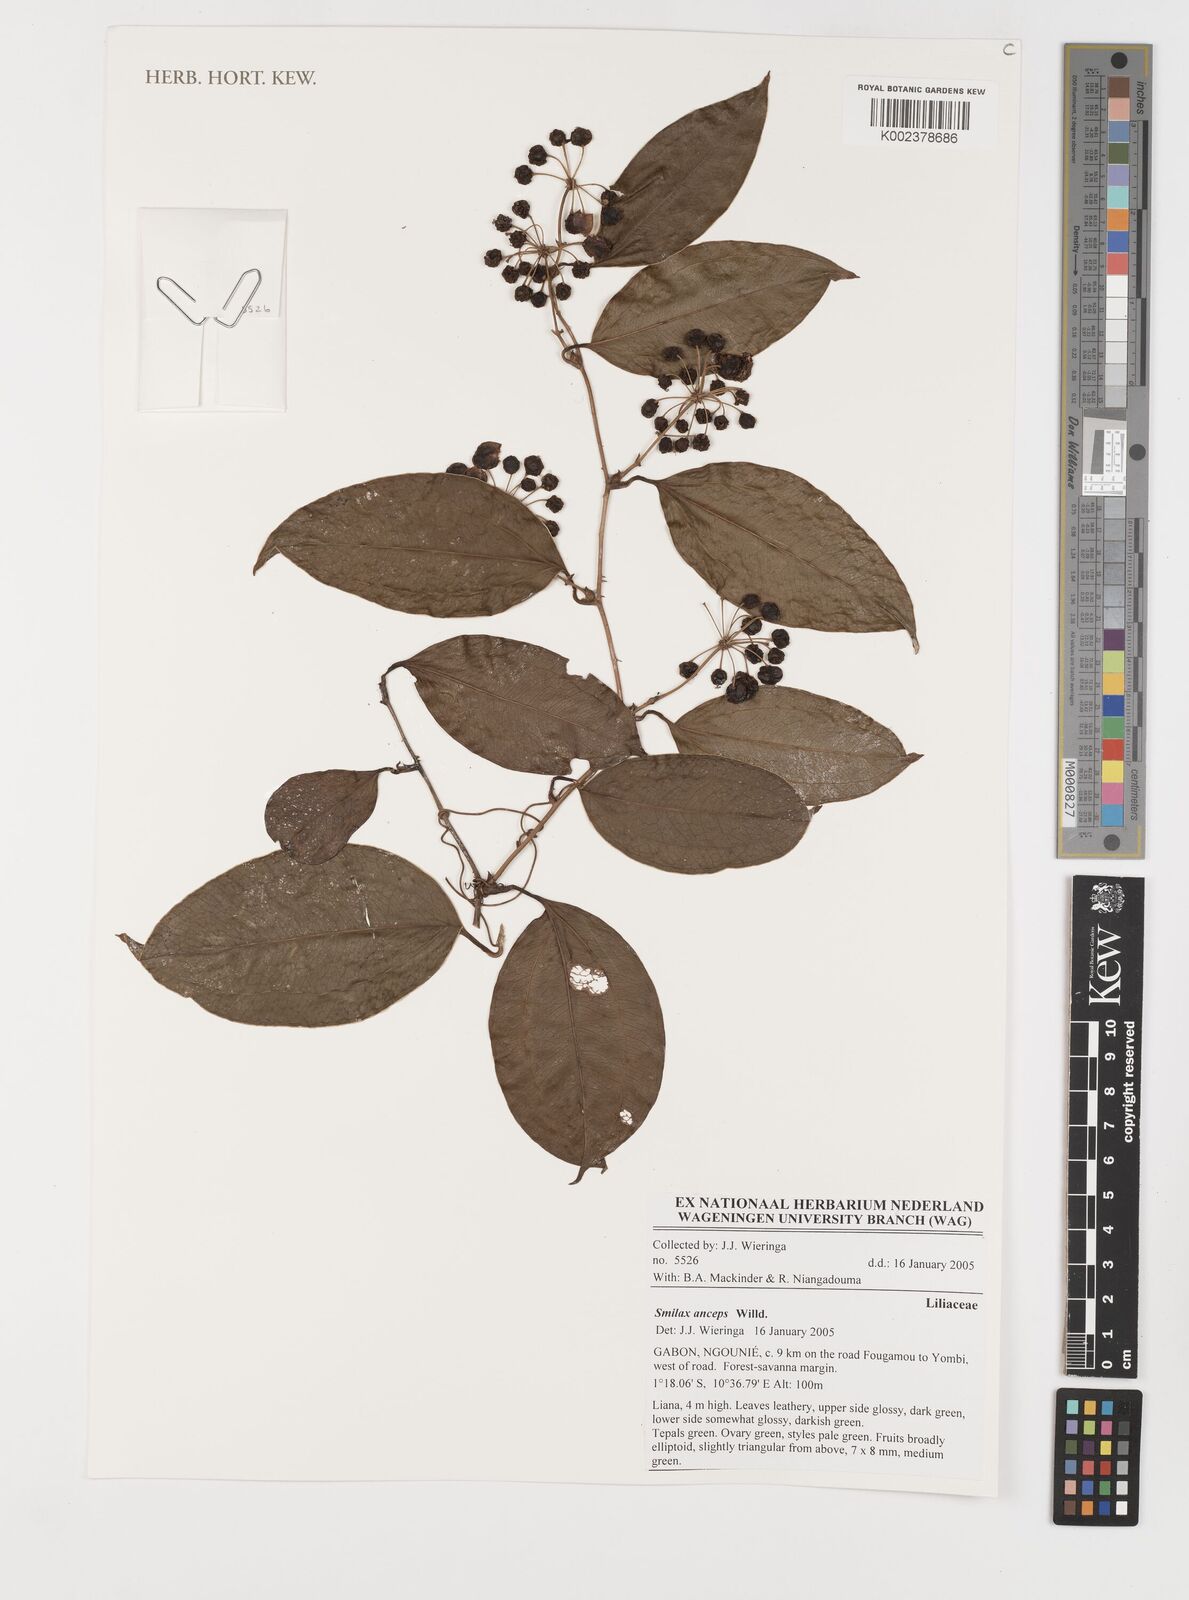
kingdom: Plantae
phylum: Tracheophyta
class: Liliopsida
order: Liliales
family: Smilacaceae
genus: Smilax
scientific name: Smilax anceps
